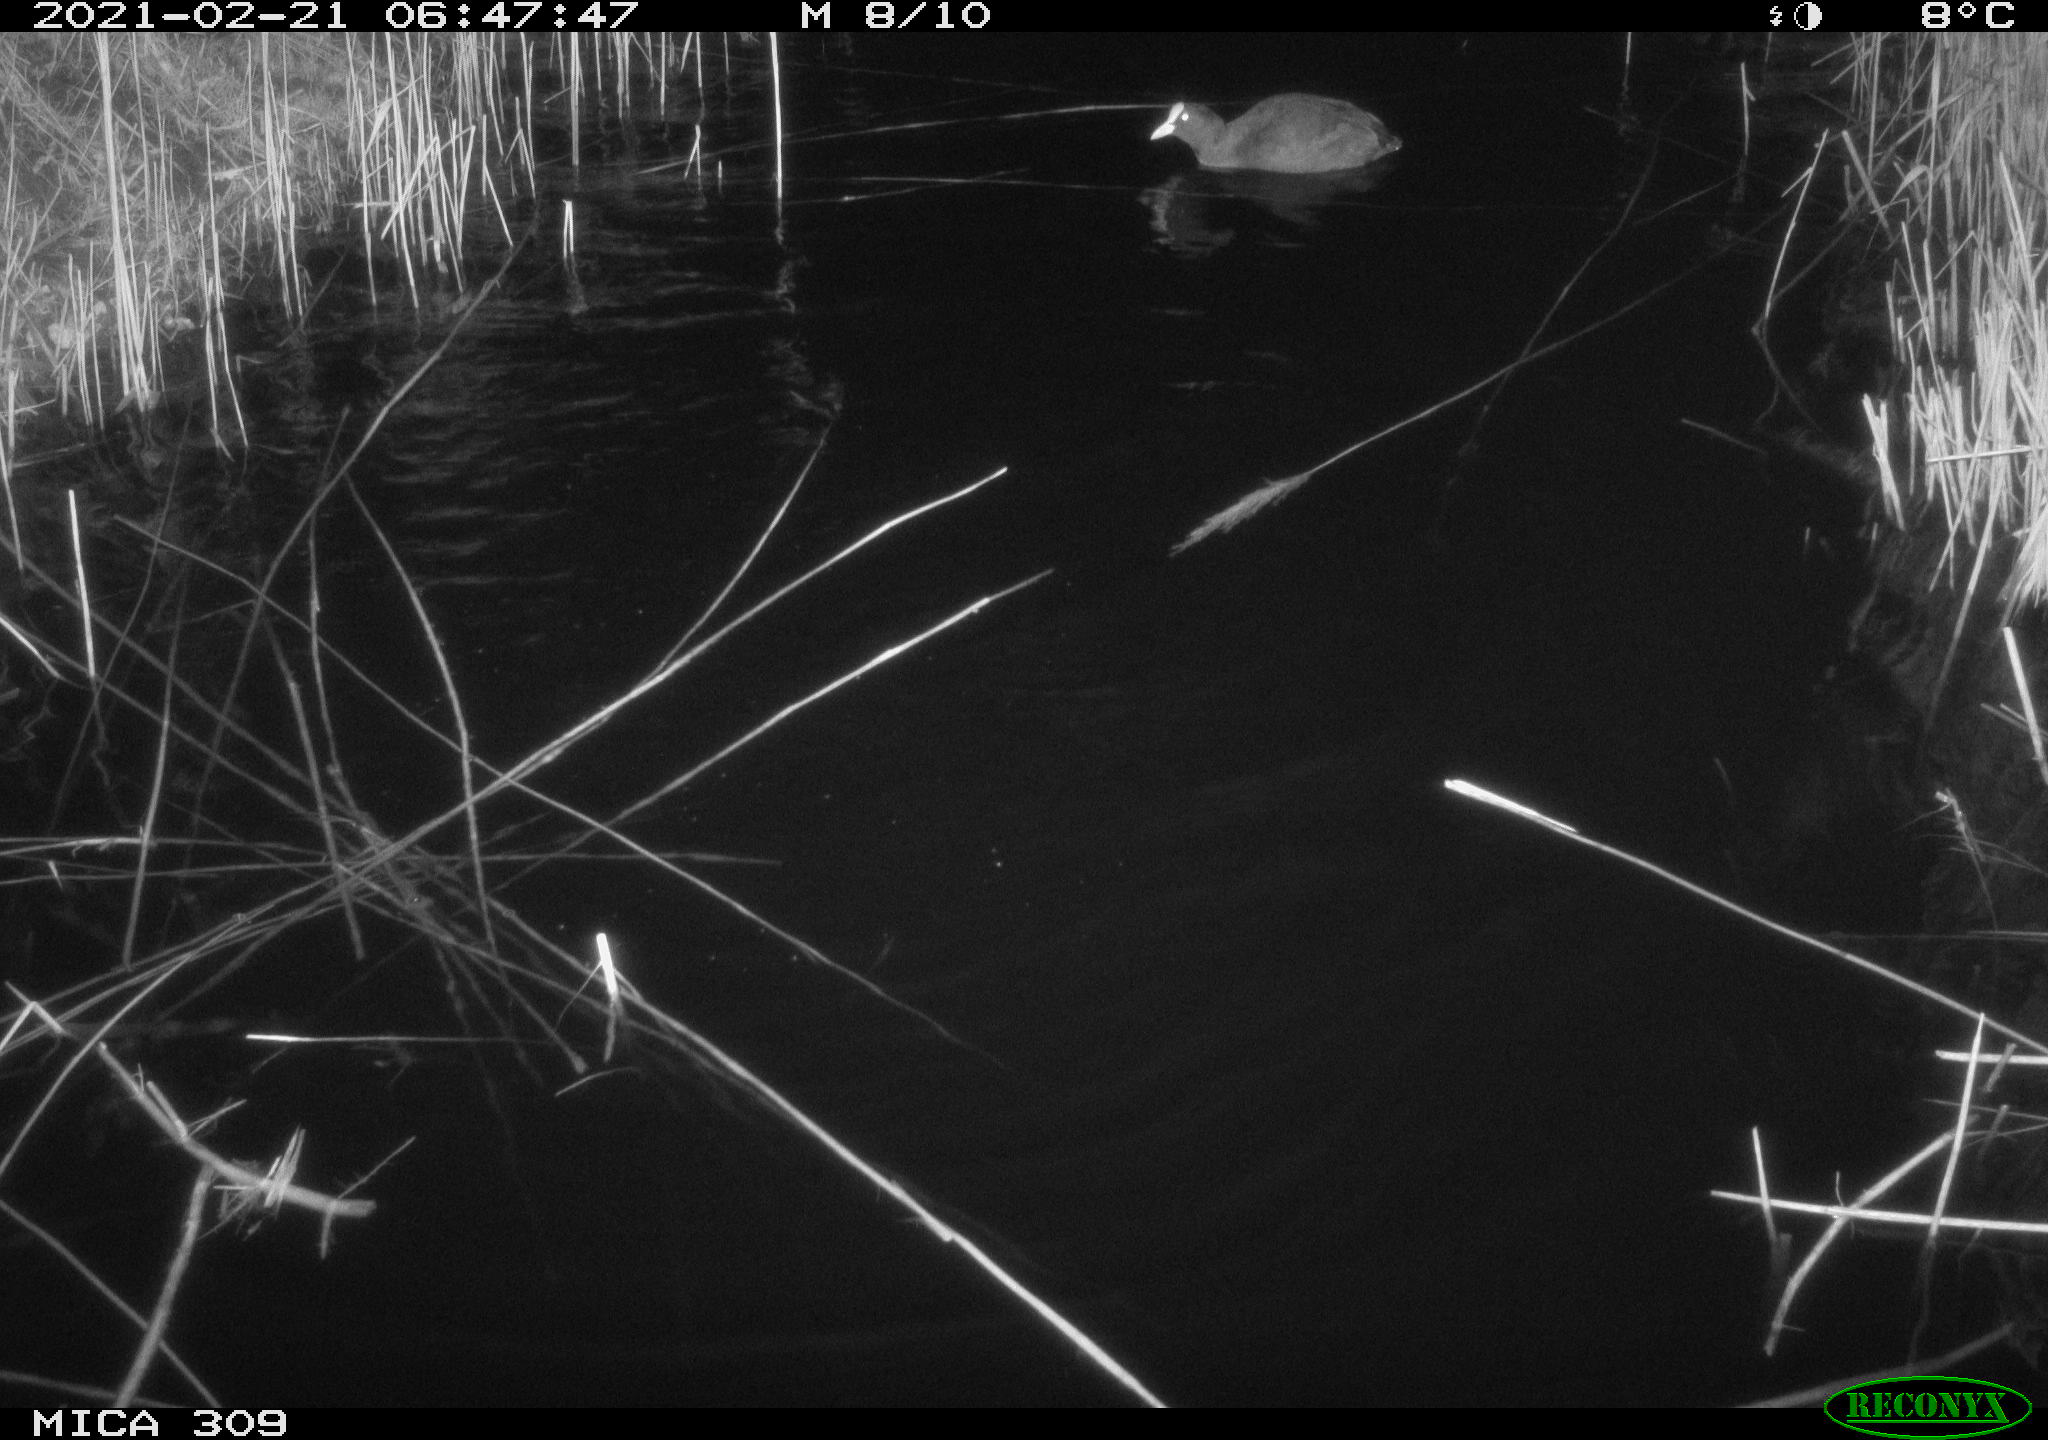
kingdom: Animalia
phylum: Chordata
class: Aves
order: Gruiformes
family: Rallidae
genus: Fulica
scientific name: Fulica atra
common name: Eurasian coot
